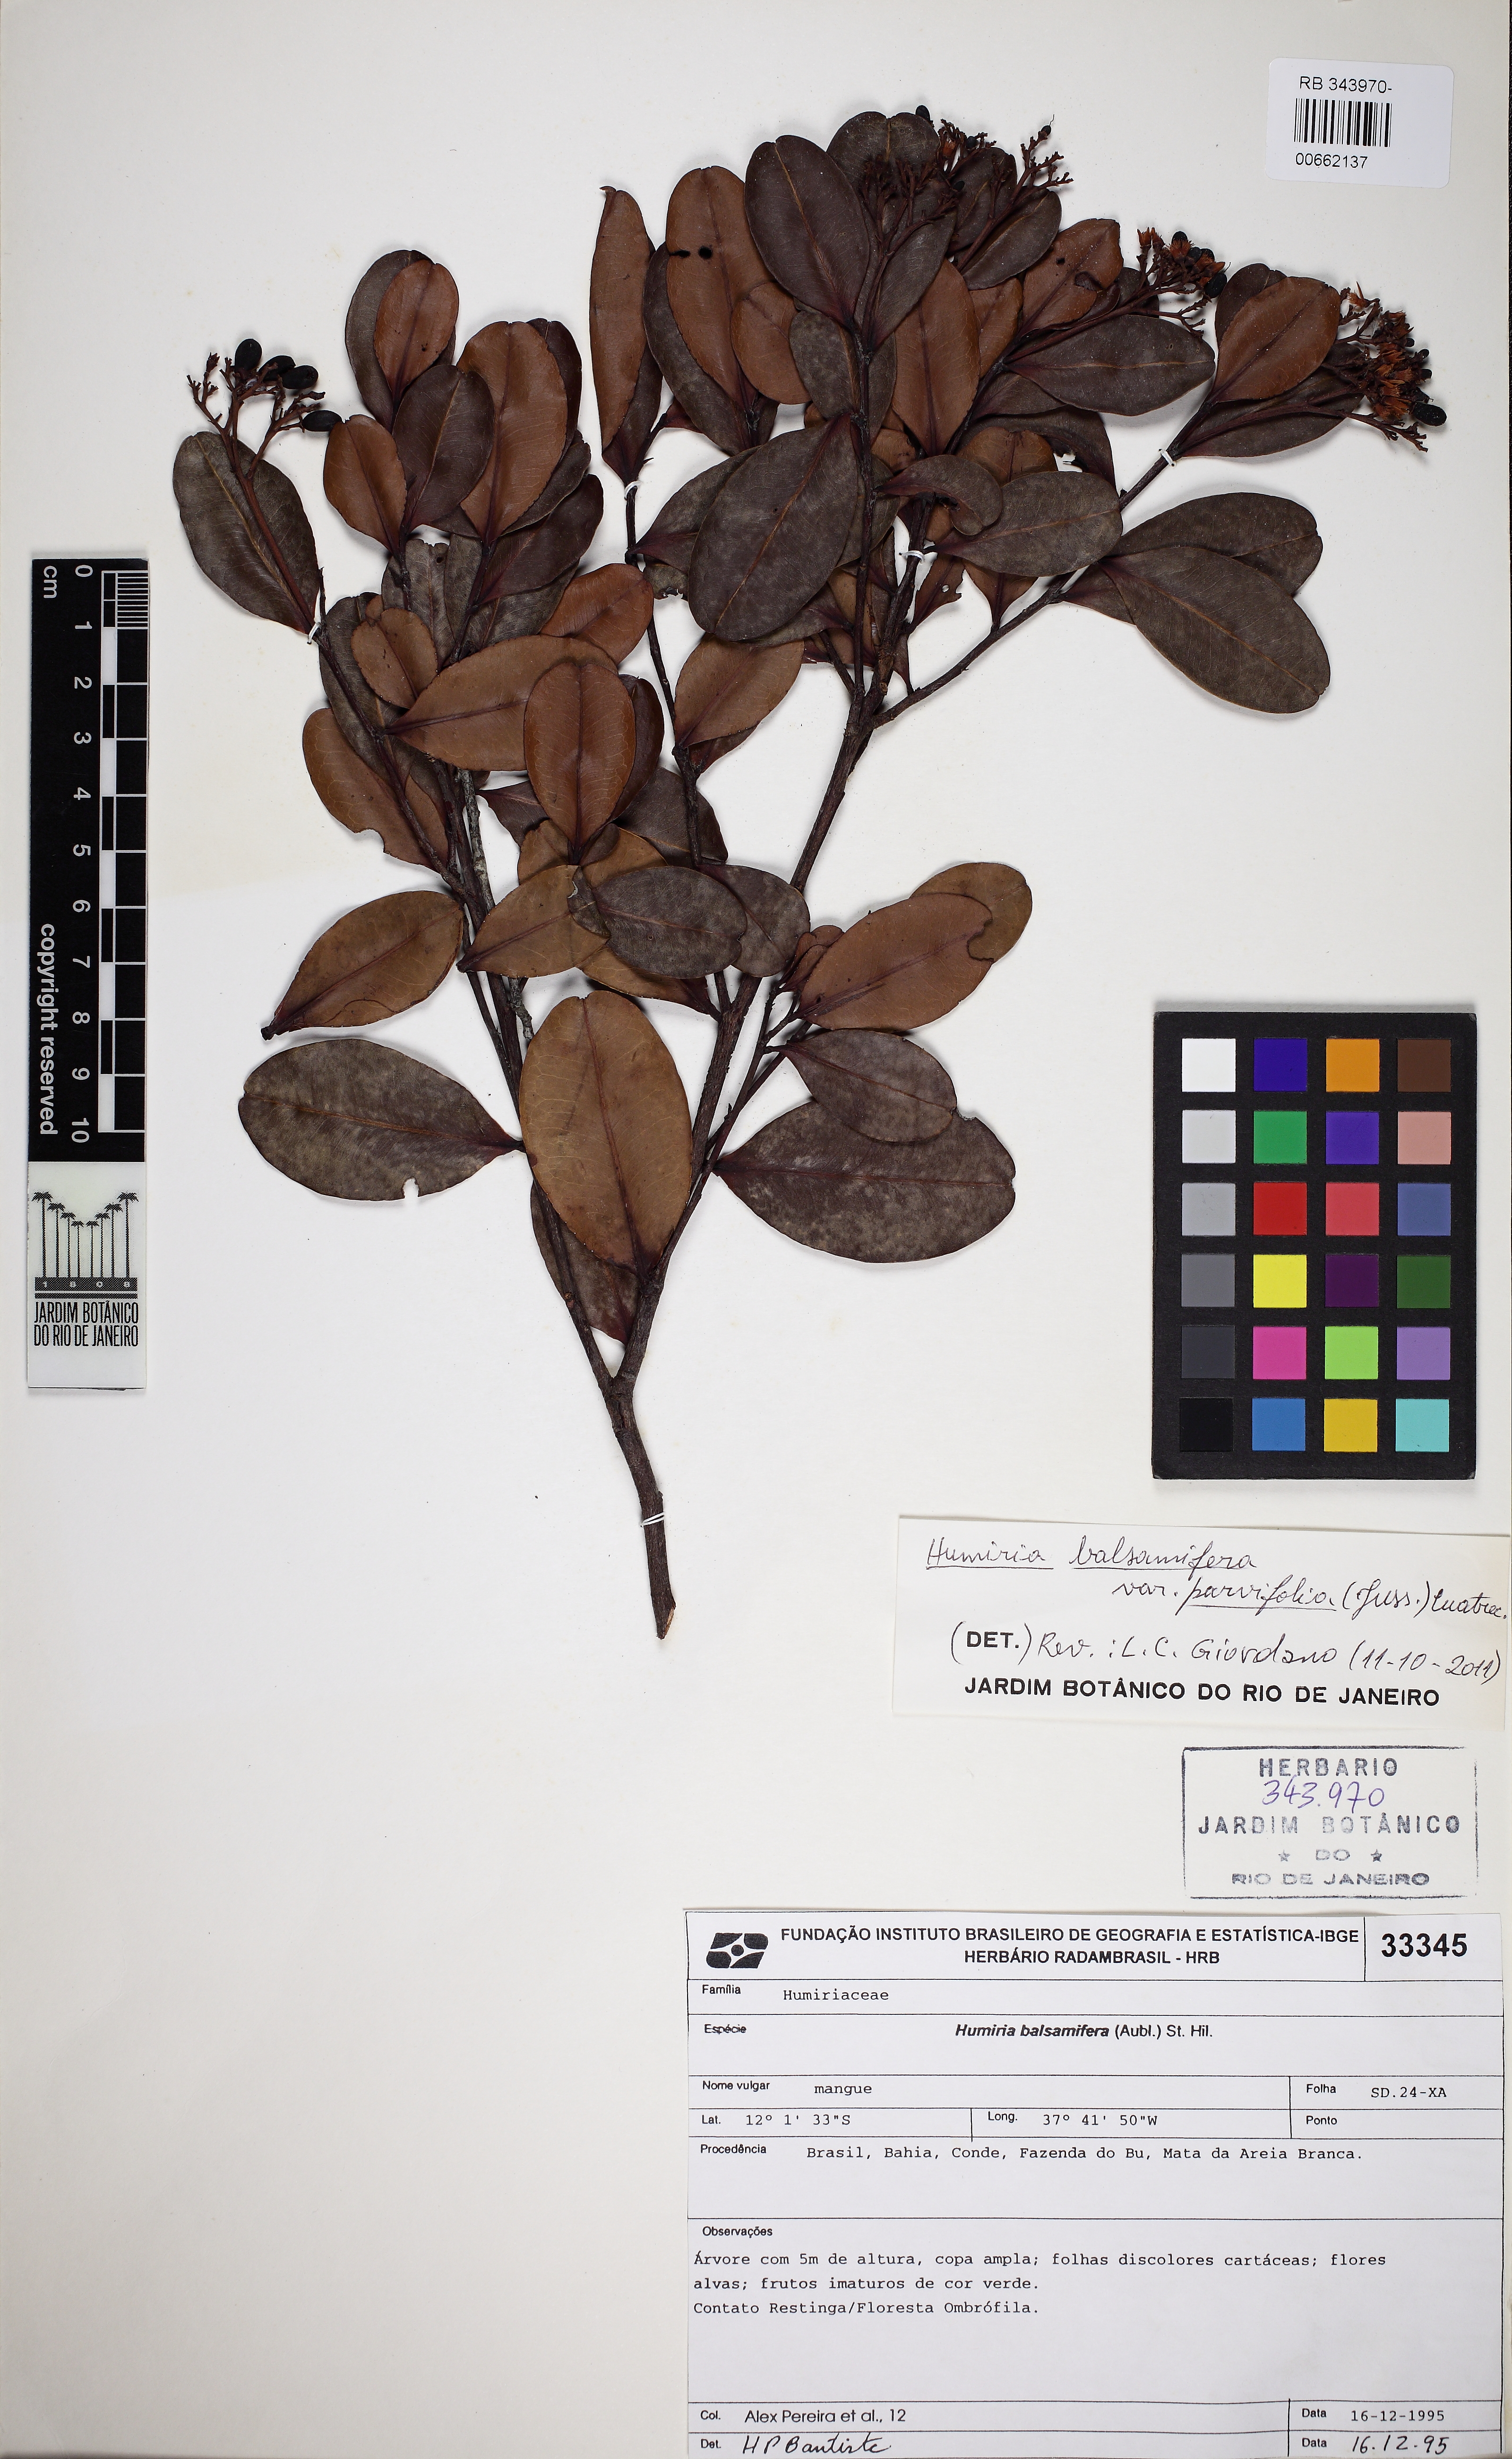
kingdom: Plantae
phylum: Tracheophyta
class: Magnoliopsida
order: Malpighiales
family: Humiriaceae
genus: Humiria
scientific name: Humiria parvifolia
